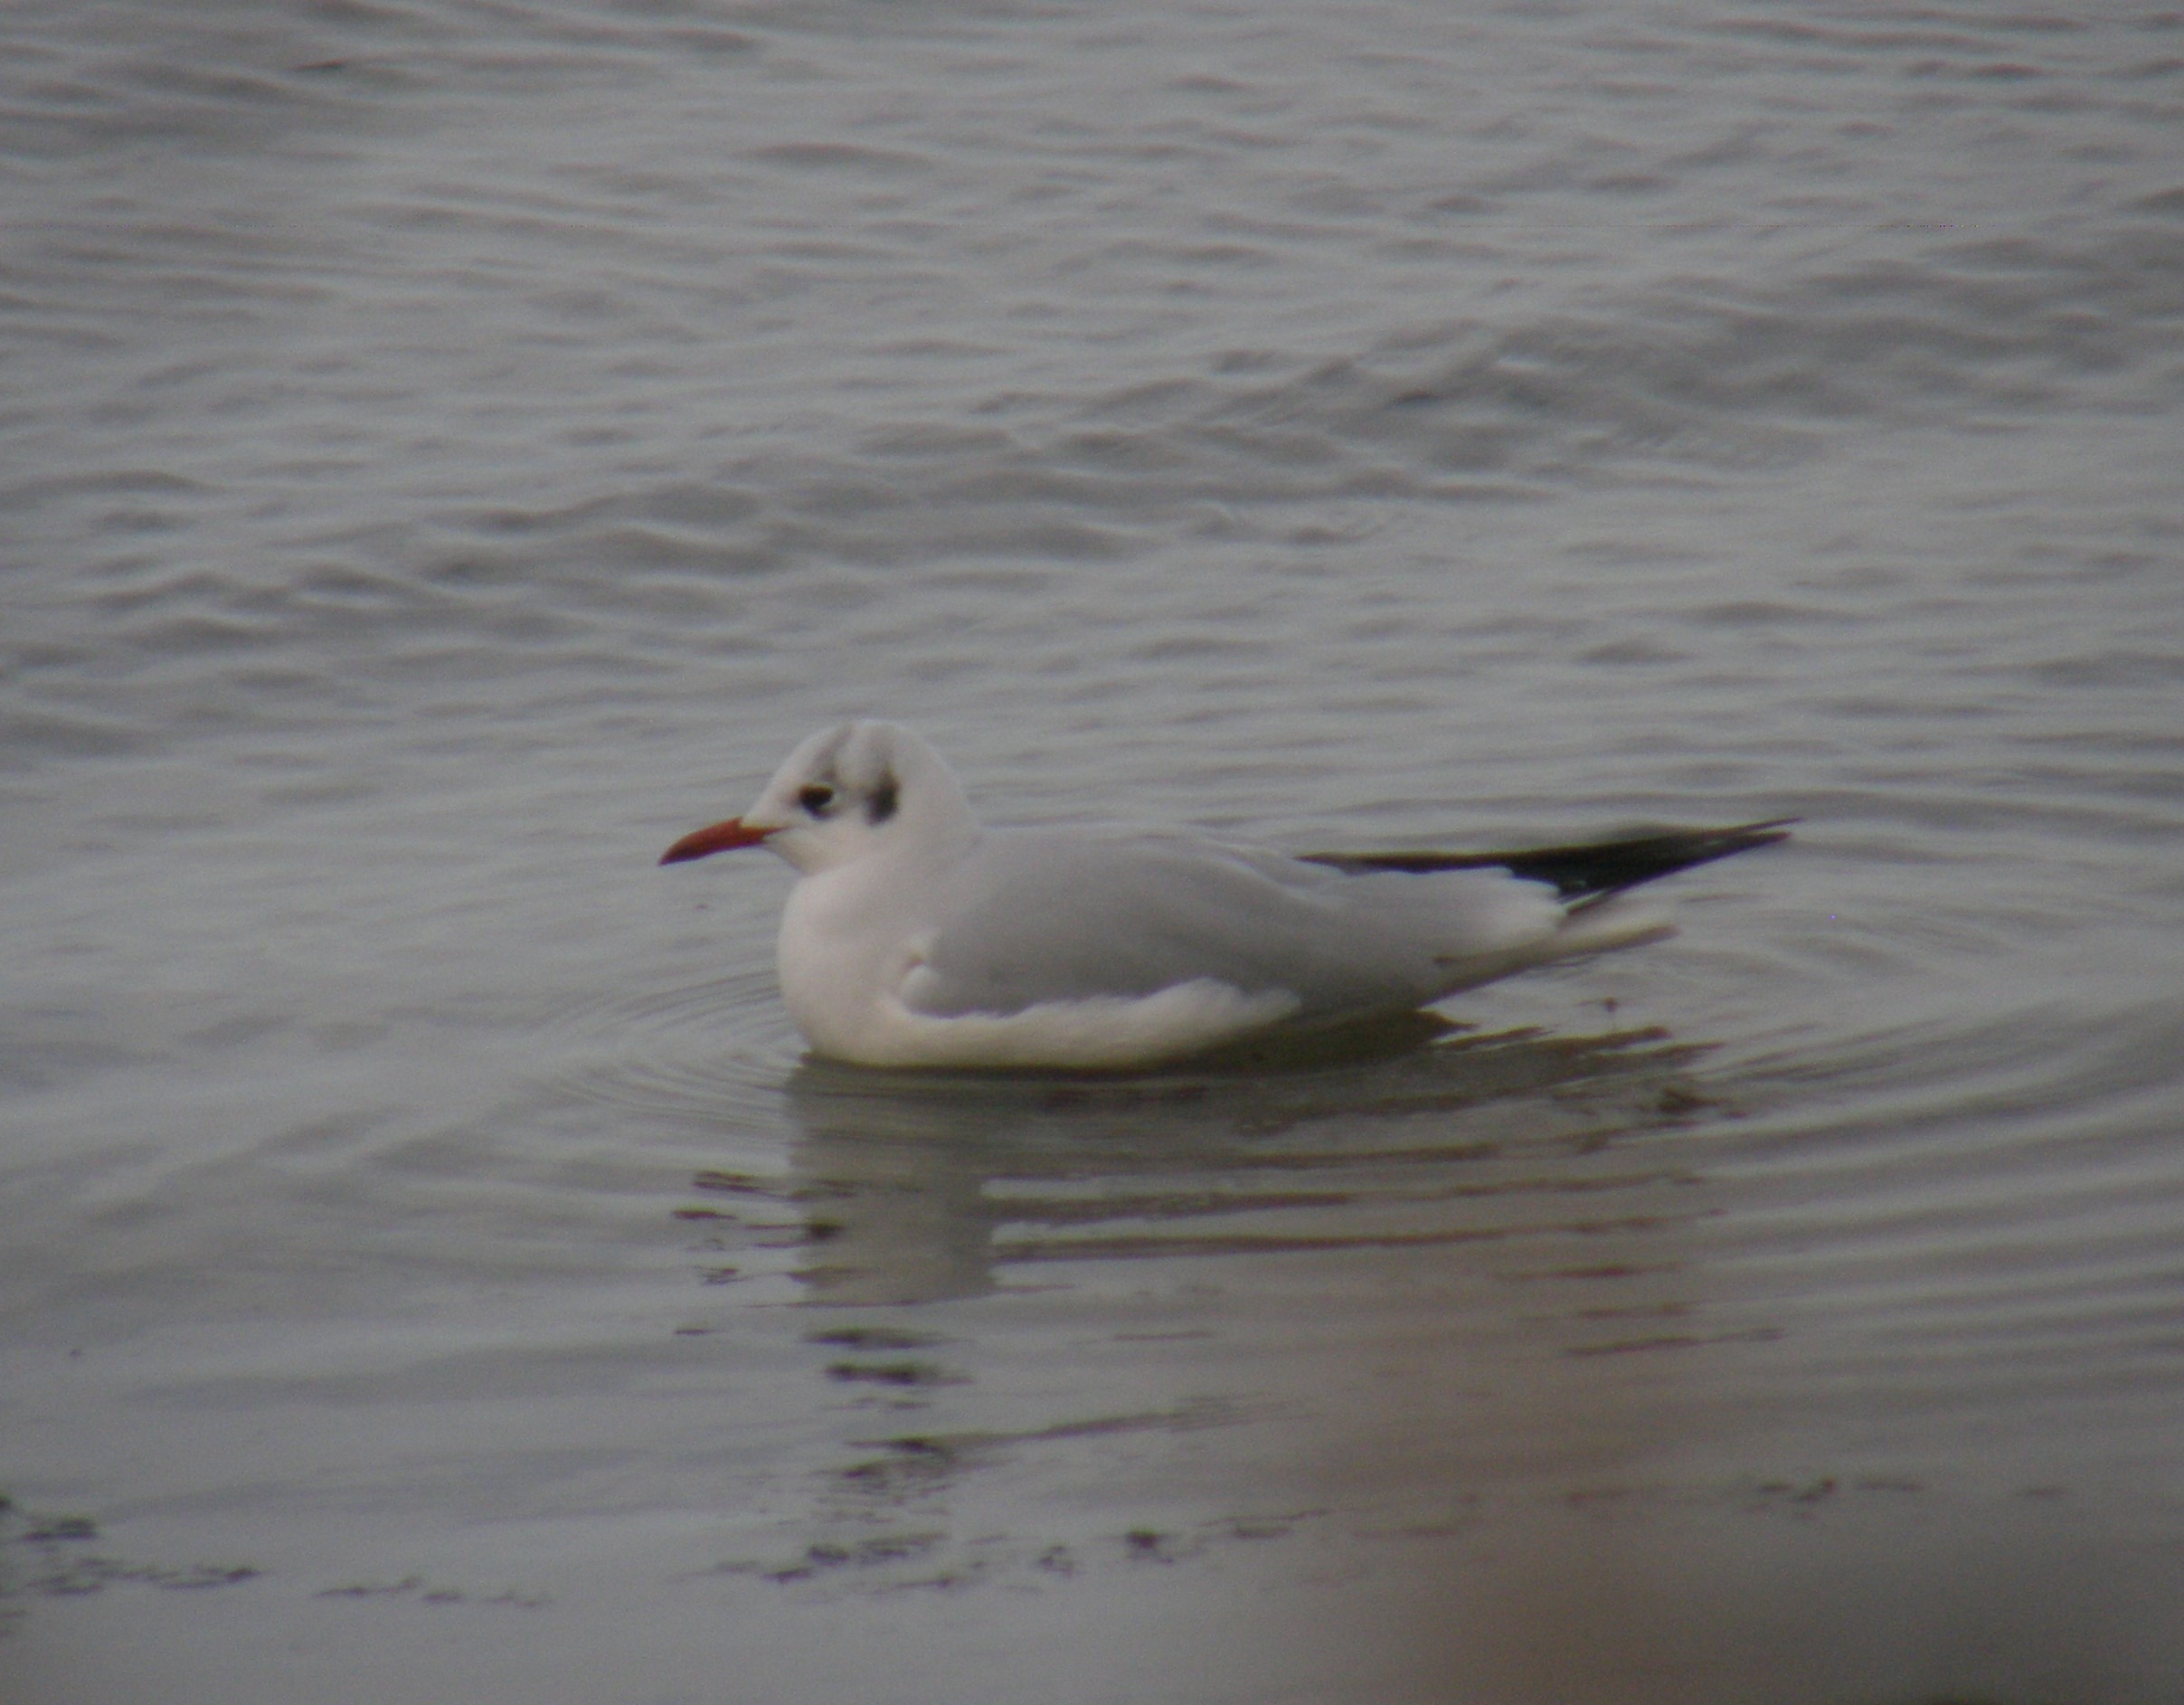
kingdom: Animalia
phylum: Chordata
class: Aves
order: Charadriiformes
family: Laridae
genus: Chroicocephalus
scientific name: Chroicocephalus ridibundus
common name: Hættemåge
